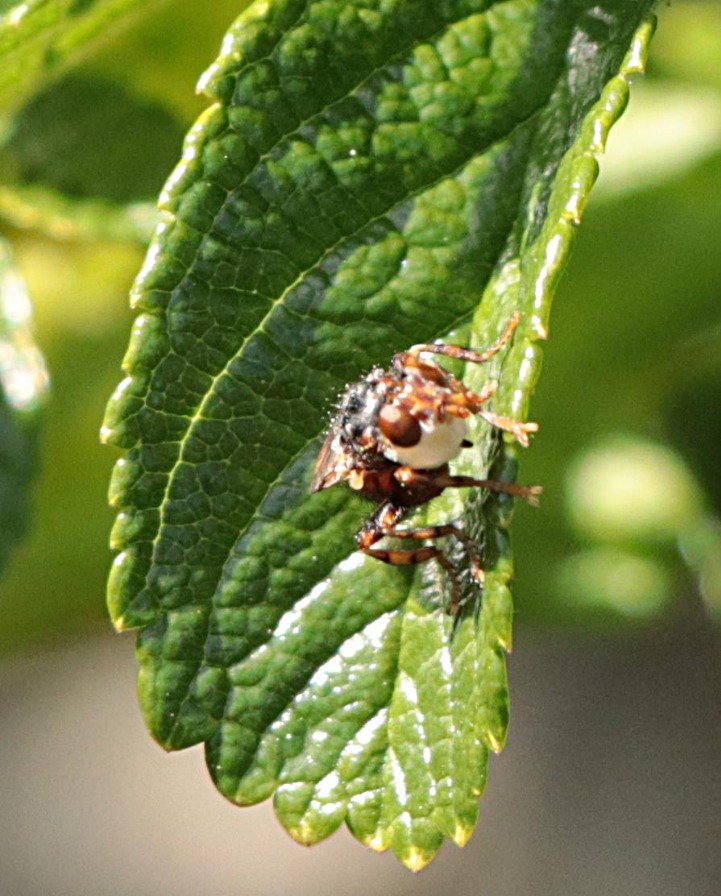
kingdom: Animalia
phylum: Arthropoda
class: Insecta
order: Diptera
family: Conopidae
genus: Myopa
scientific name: Myopa buccata
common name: Brun hvepseflue
